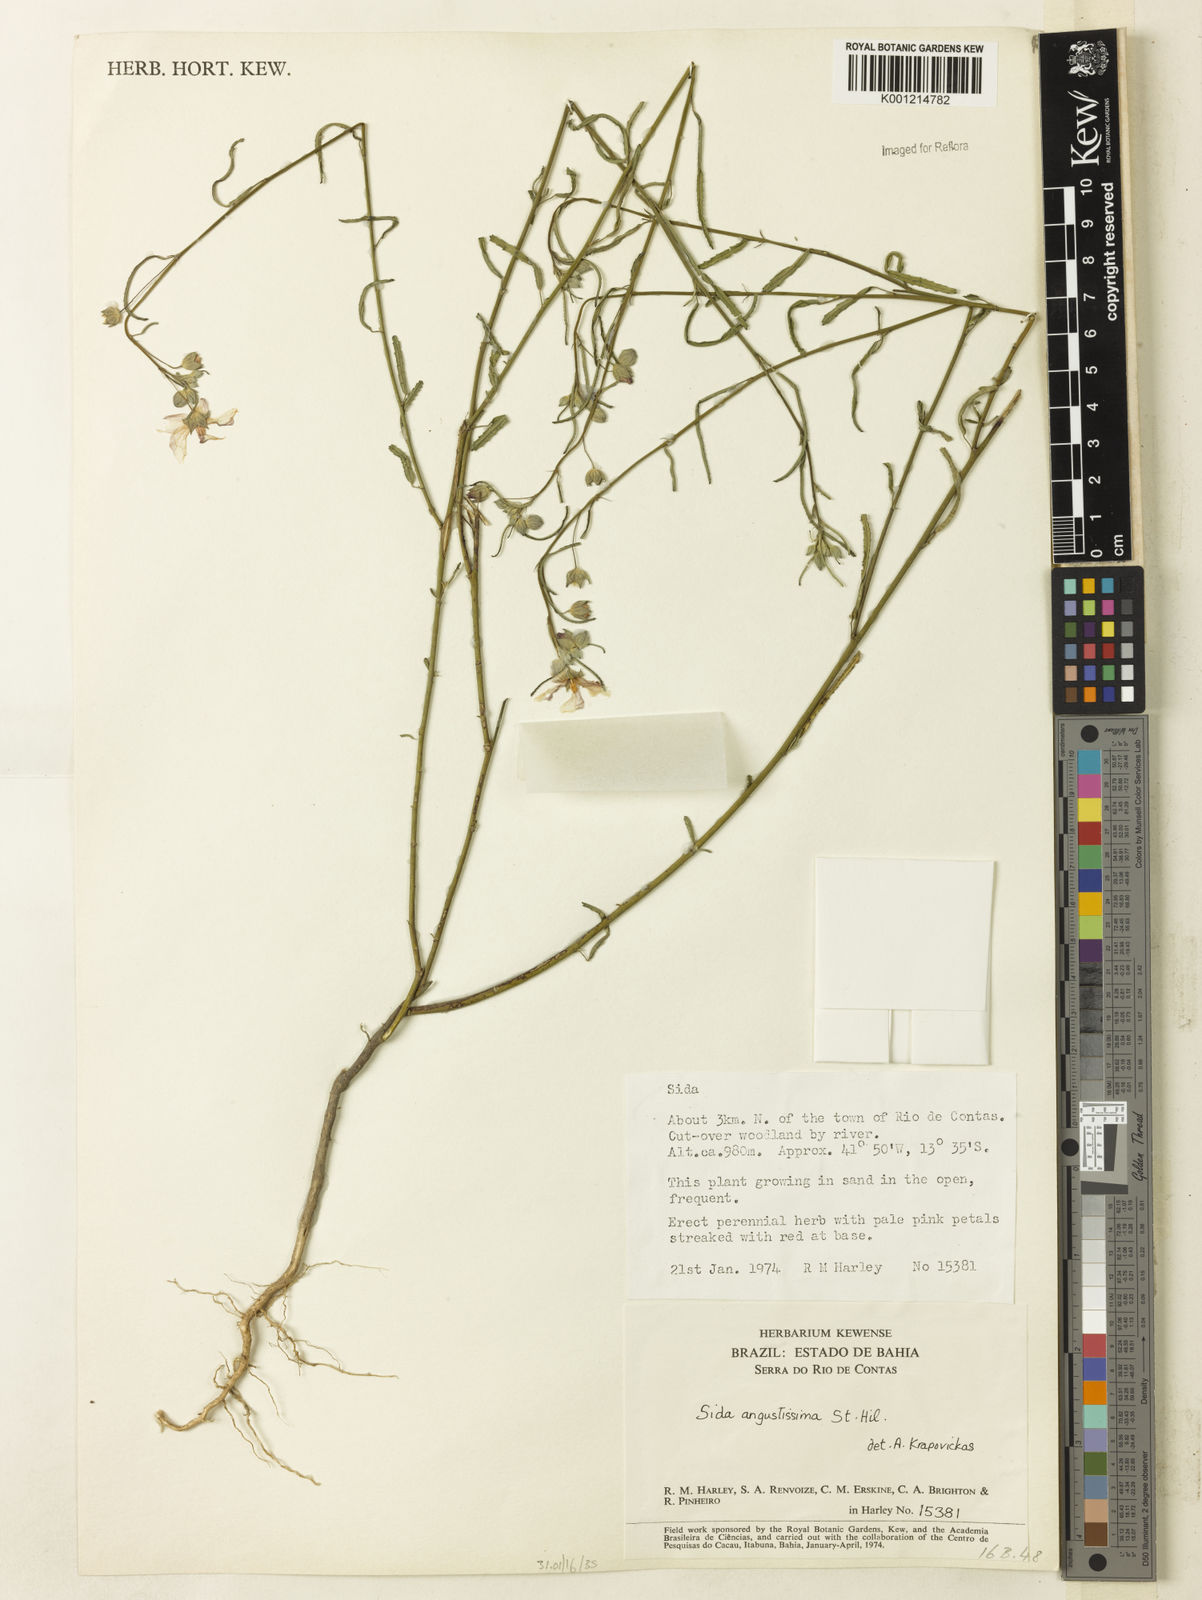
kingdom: Plantae
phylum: Tracheophyta
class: Magnoliopsida
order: Malvales
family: Malvaceae
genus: Sida
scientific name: Sida angustissima
